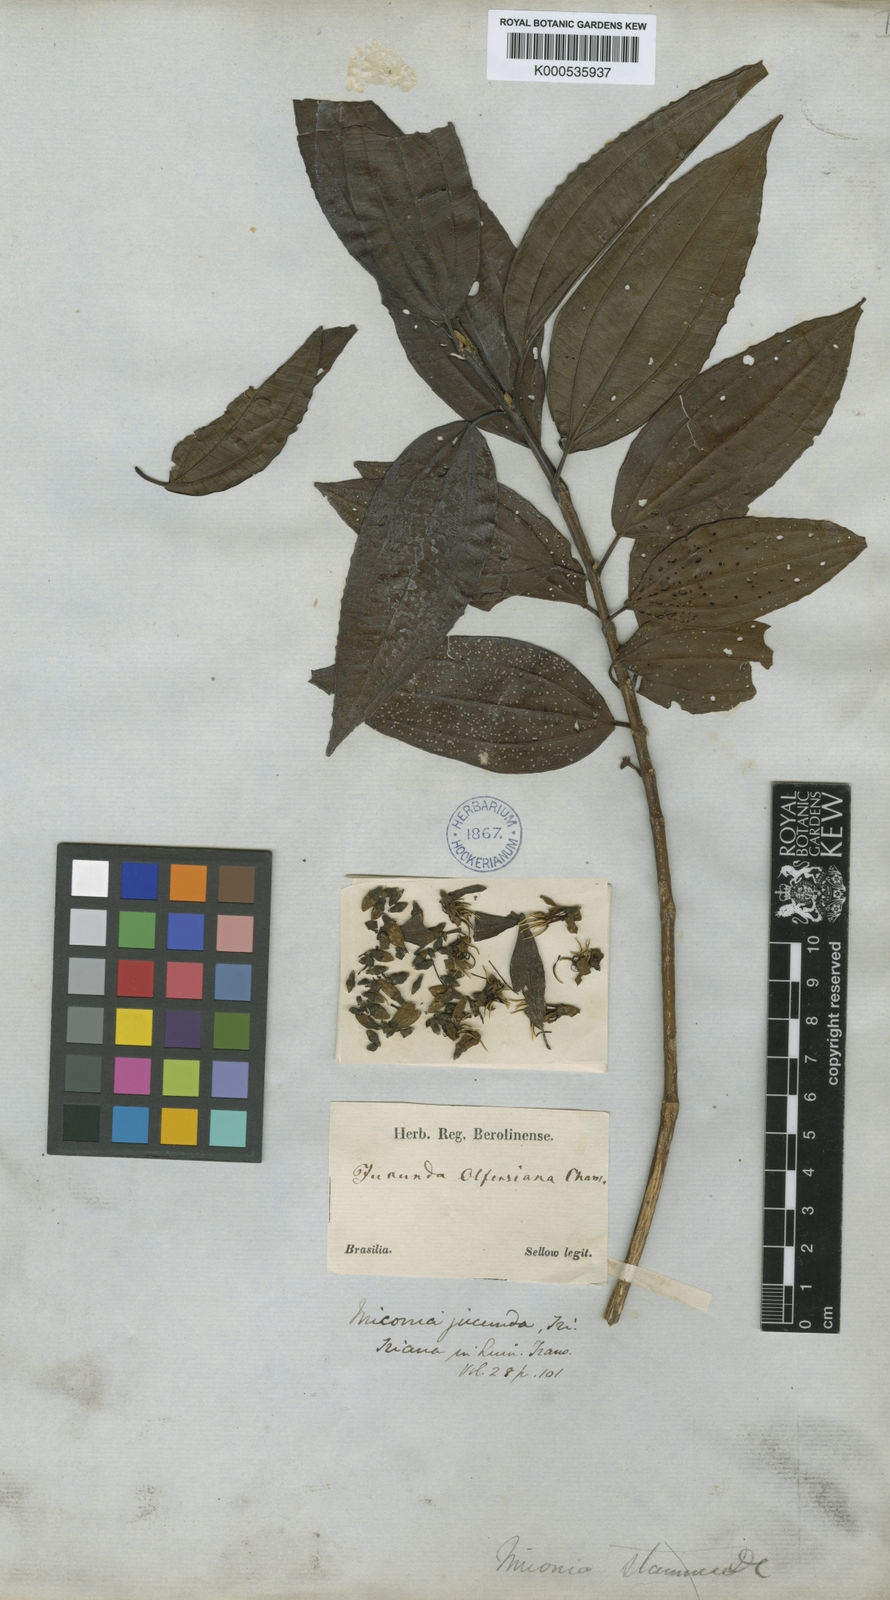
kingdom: Plantae
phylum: Tracheophyta
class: Magnoliopsida
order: Myrtales
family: Melastomataceae
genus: Miconia
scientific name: Miconia jucunda
